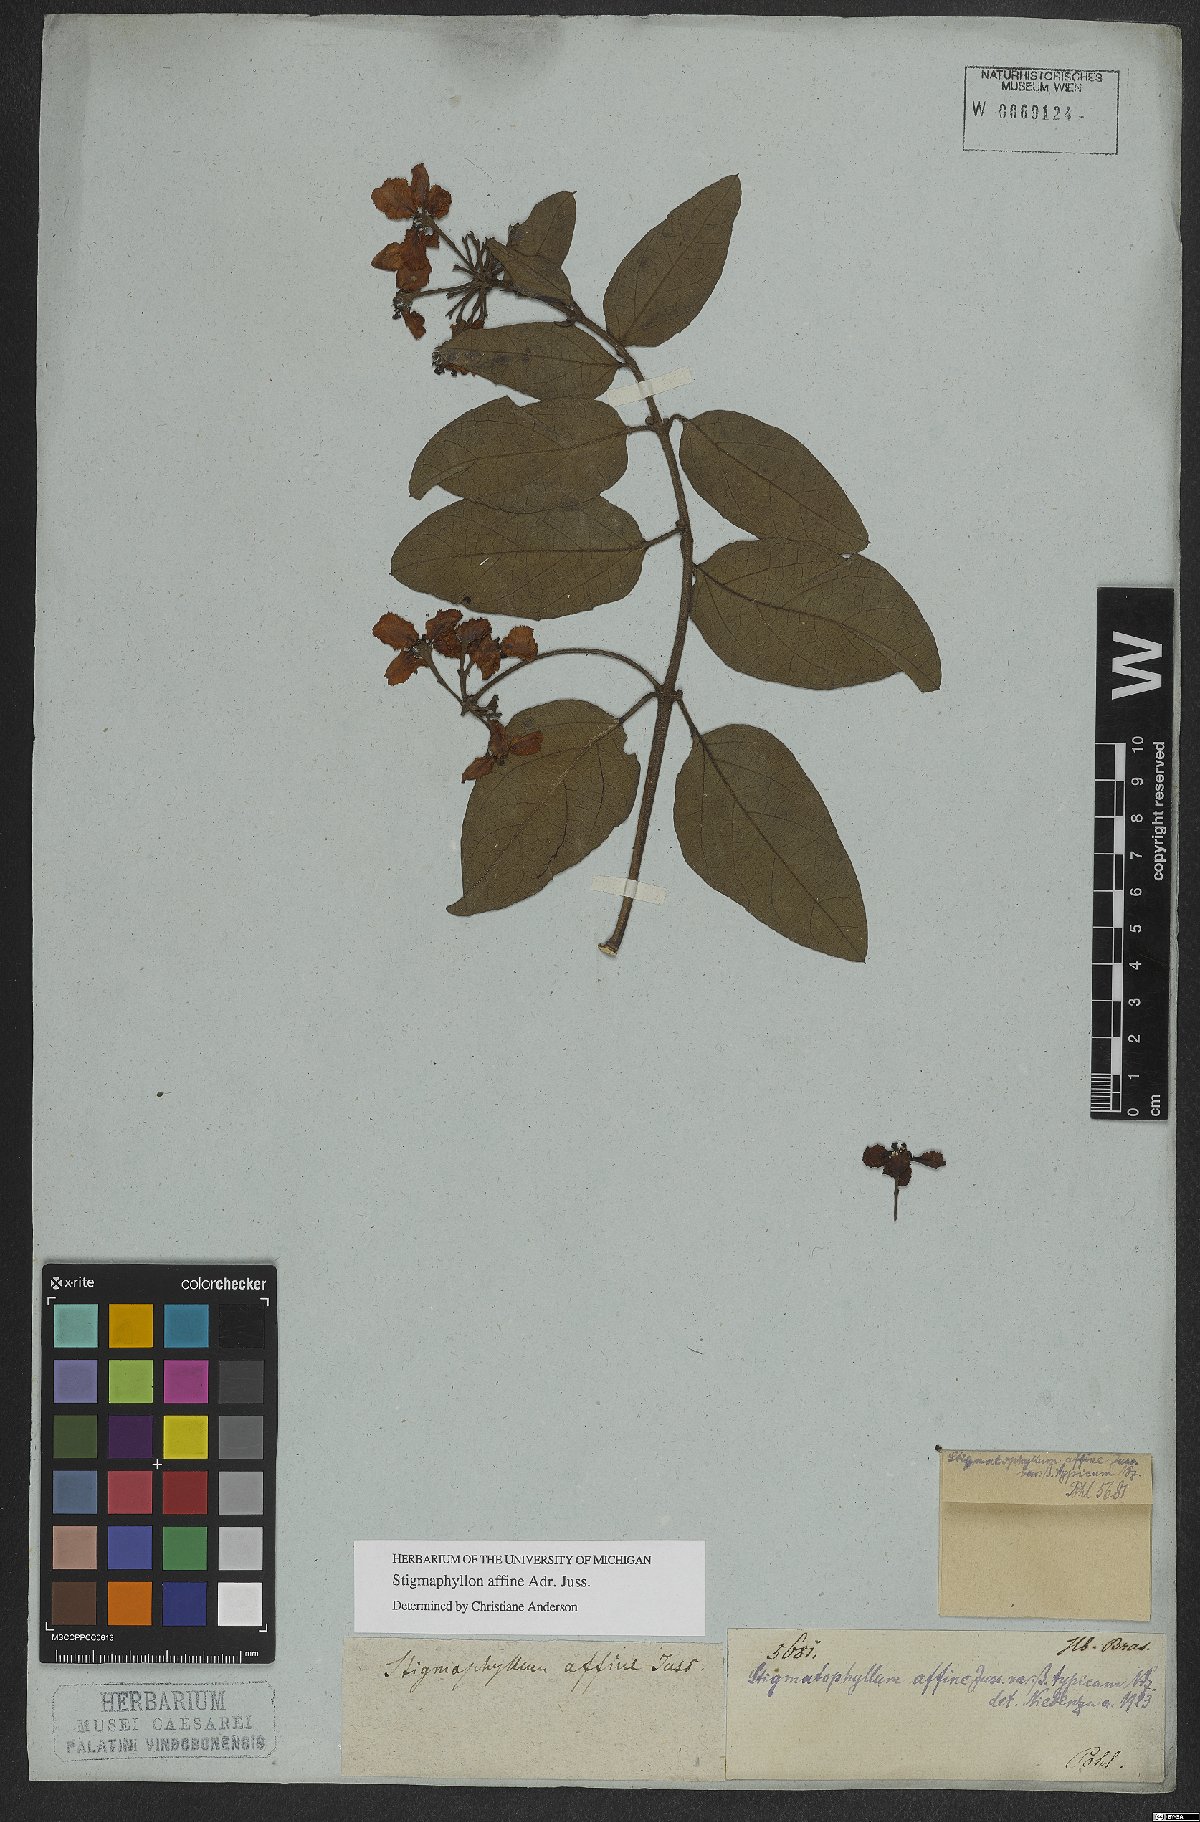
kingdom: Plantae
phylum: Tracheophyta
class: Magnoliopsida
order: Malpighiales
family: Malpighiaceae
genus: Stigmaphyllon
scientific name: Stigmaphyllon affine
